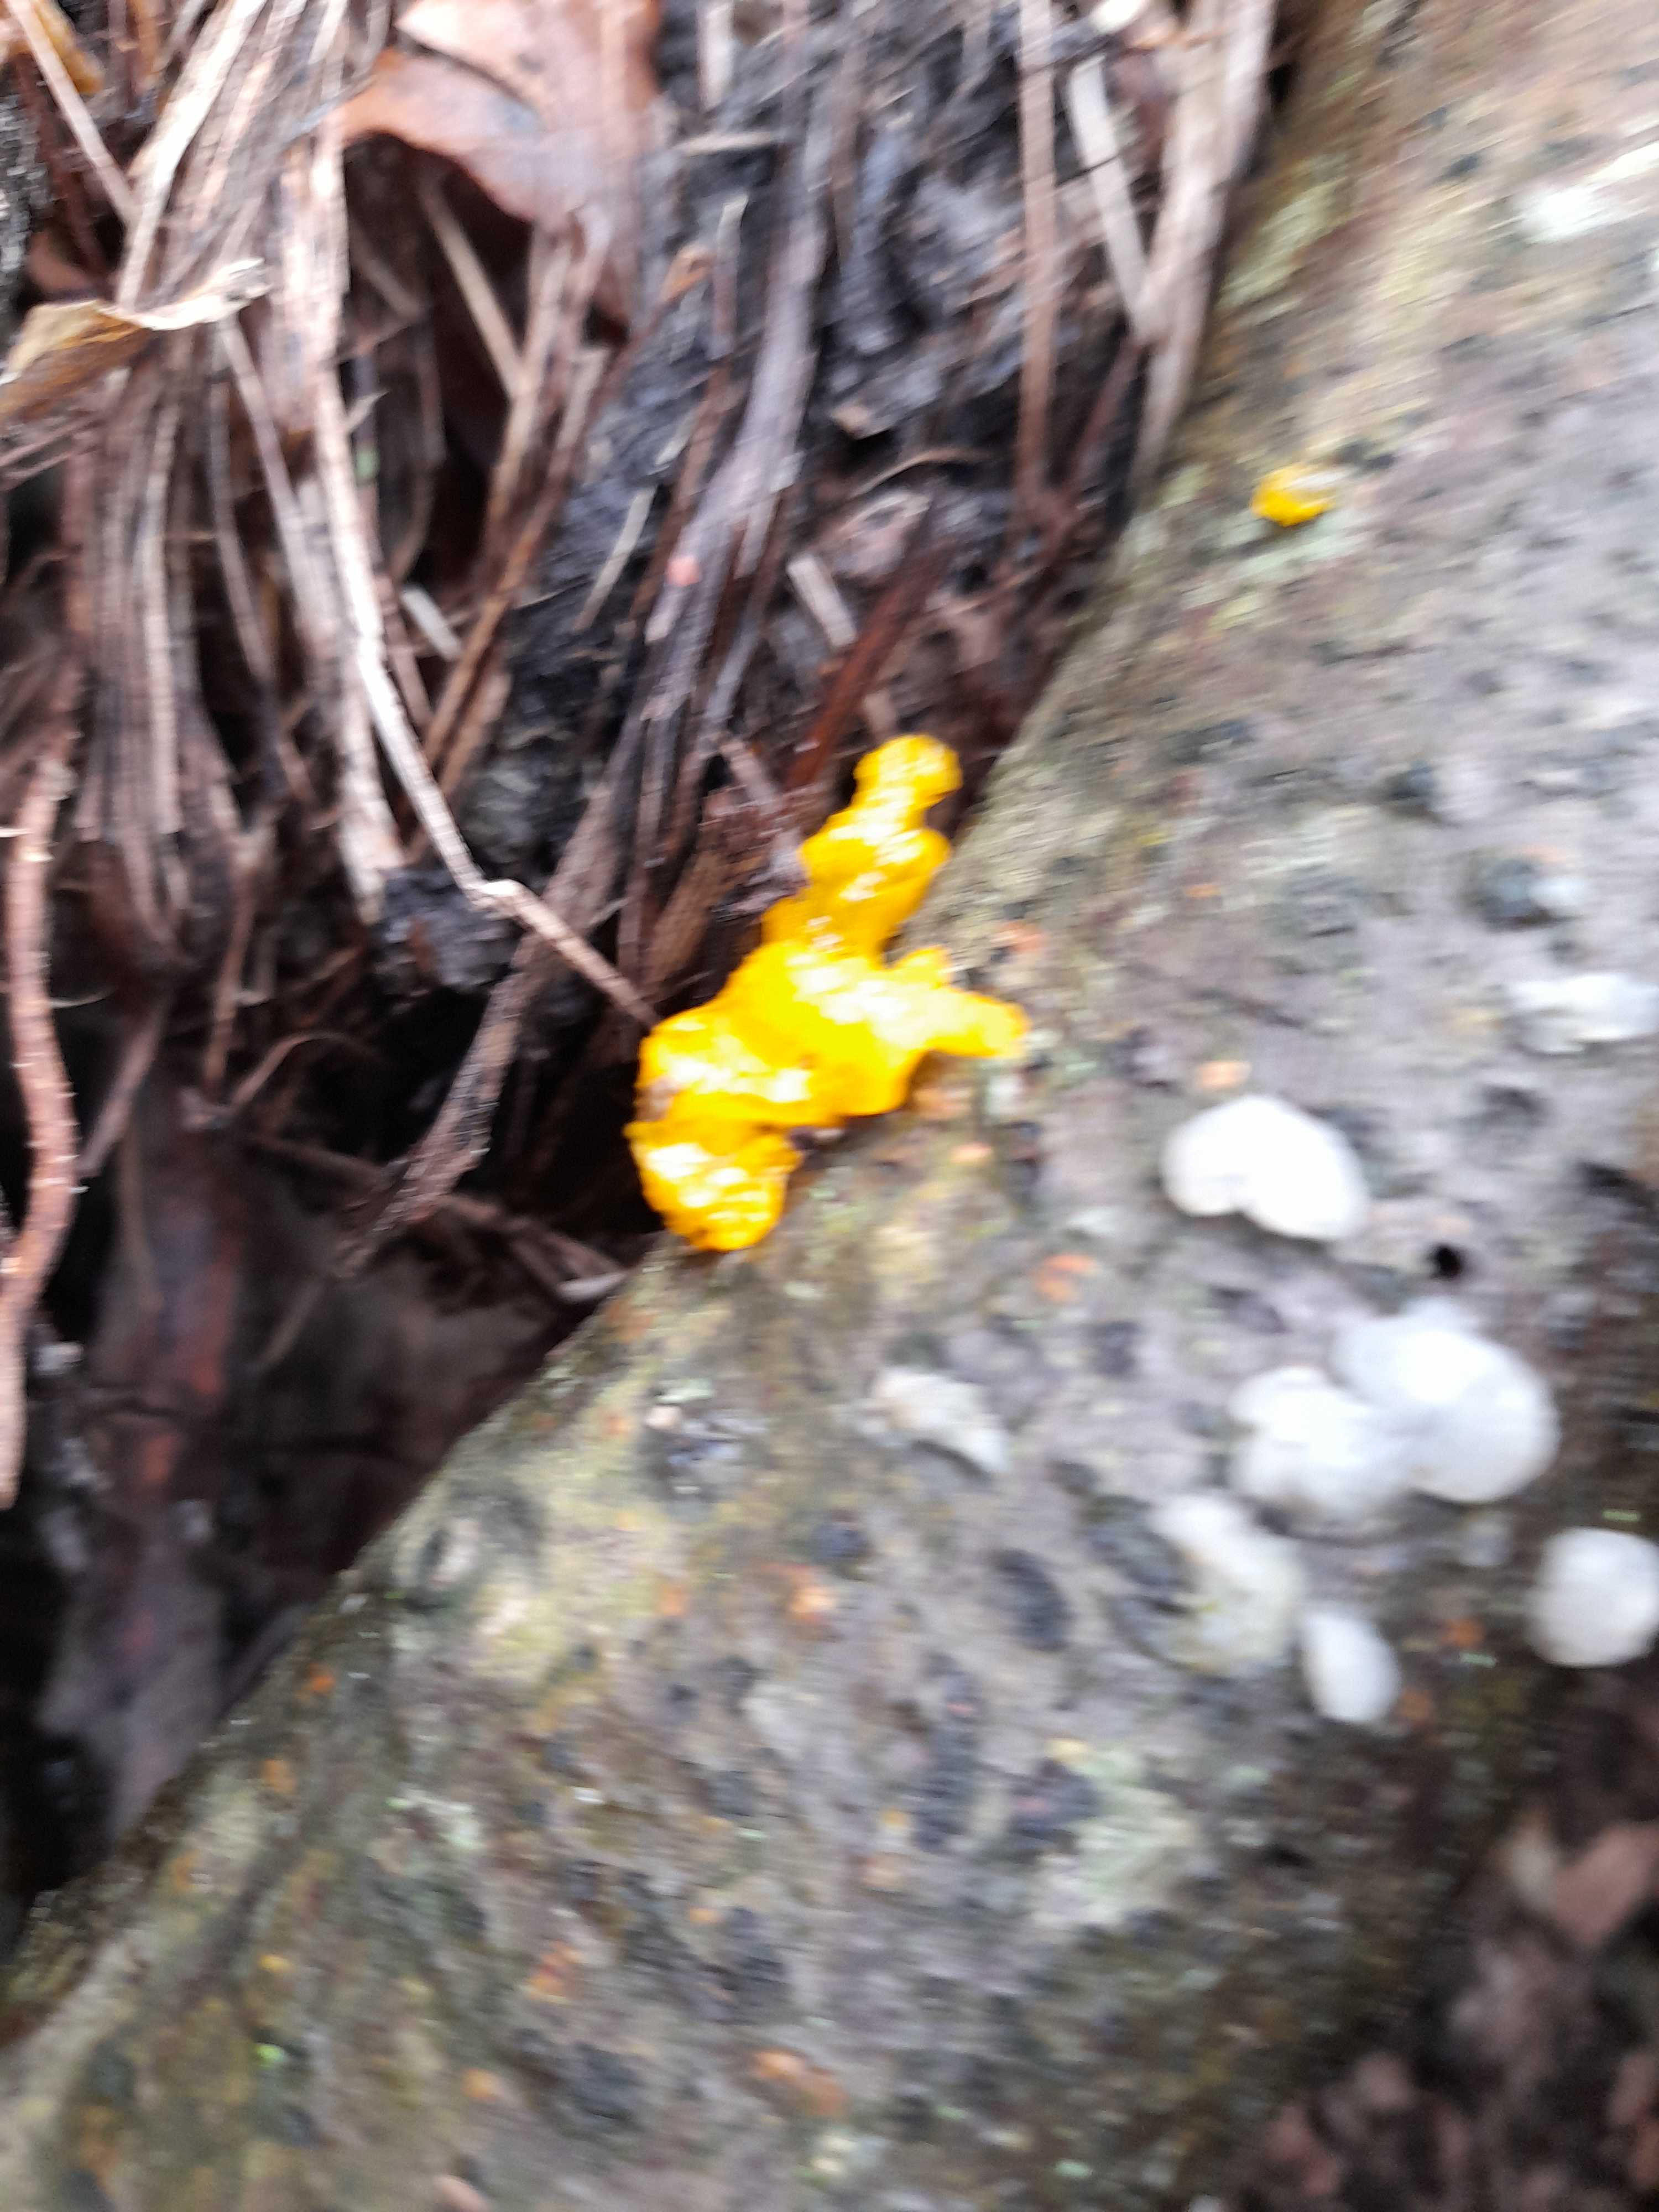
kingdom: Fungi
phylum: Basidiomycota
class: Tremellomycetes
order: Tremellales
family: Tremellaceae
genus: Tremella
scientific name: Tremella mesenterica
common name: gul bævresvamp
